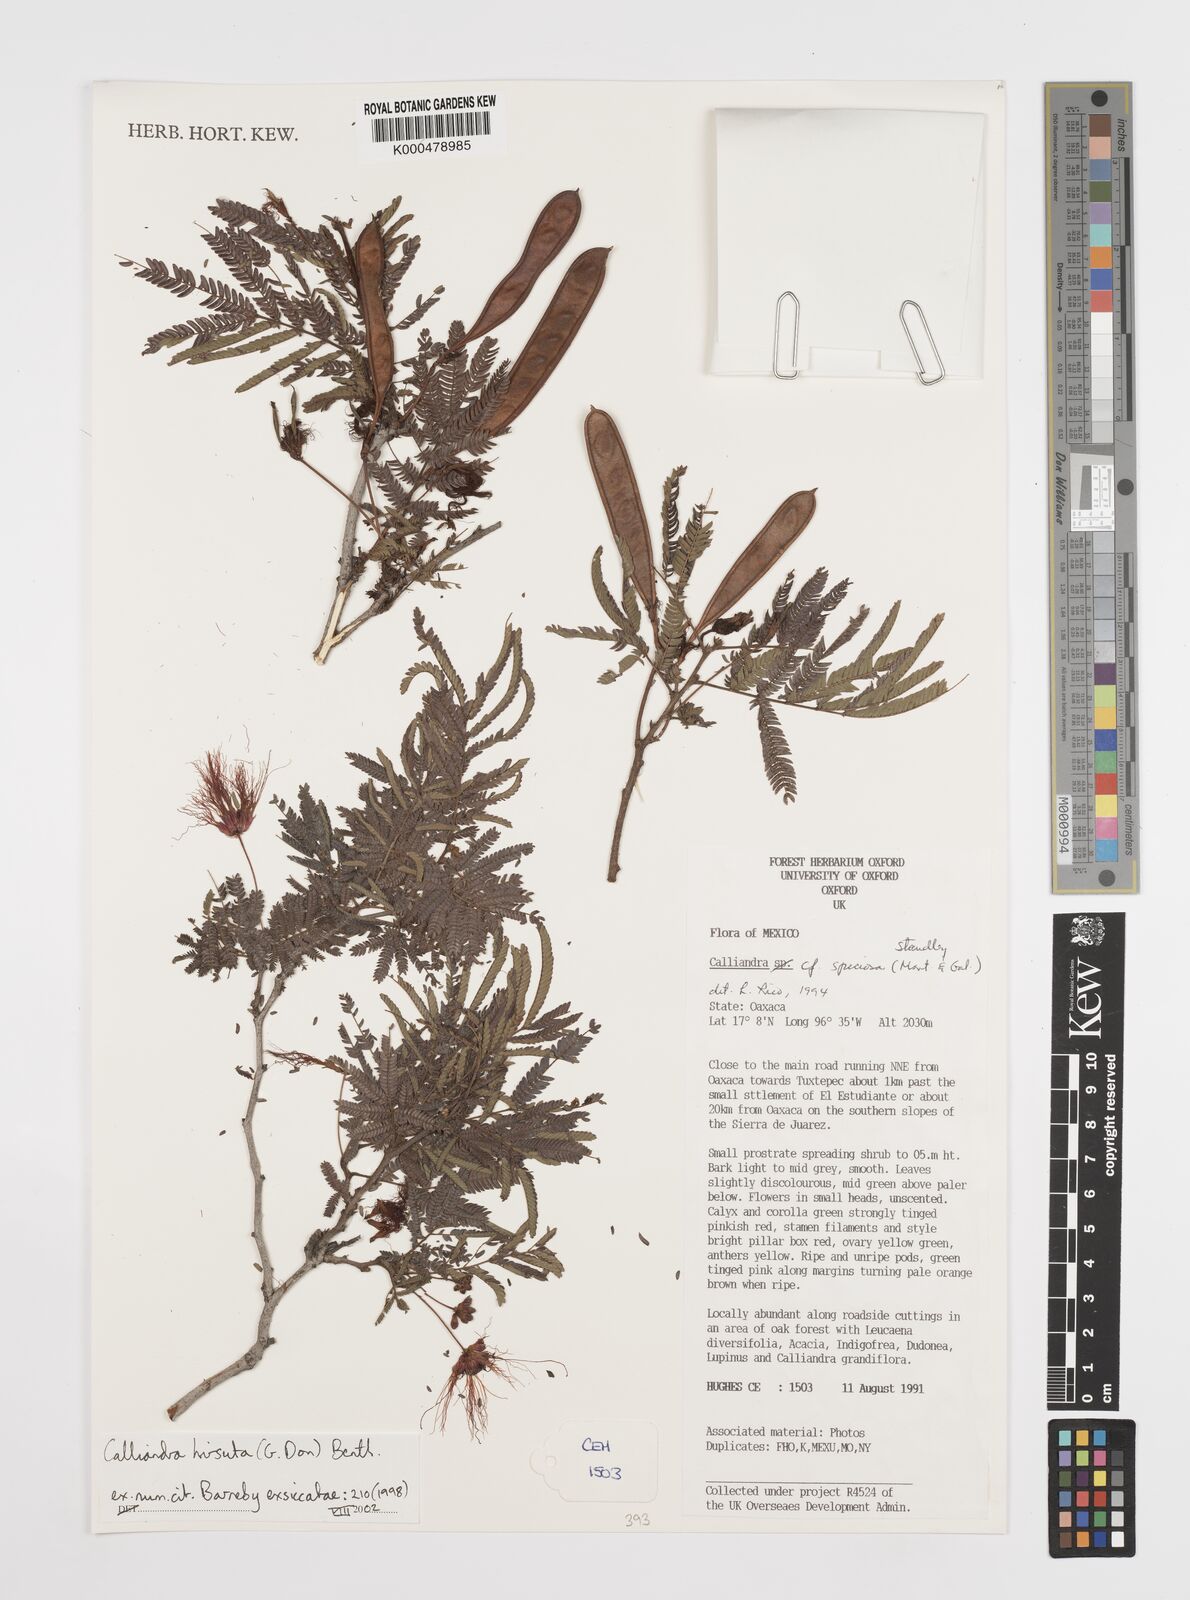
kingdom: Plantae
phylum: Tracheophyta
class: Magnoliopsida
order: Fabales
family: Fabaceae
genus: Calliandra
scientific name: Calliandra hirsuta
